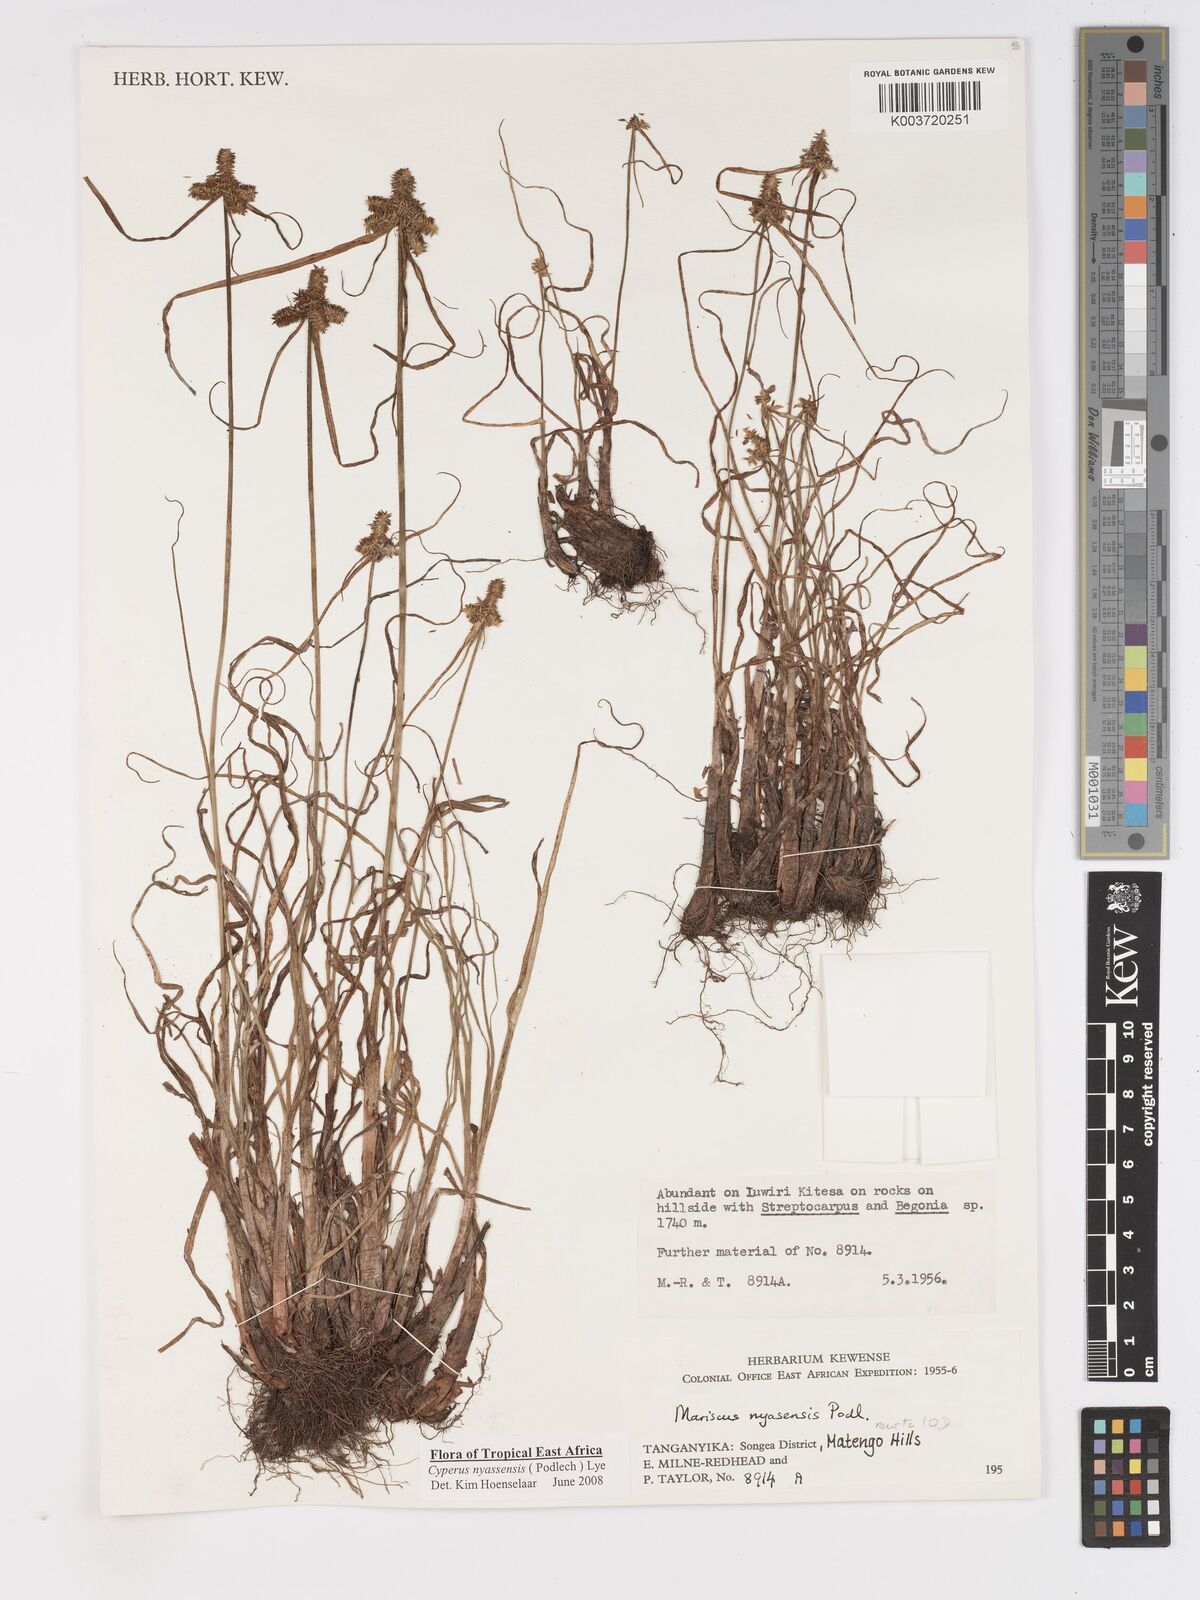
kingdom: Plantae
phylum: Tracheophyta
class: Liliopsida
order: Poales
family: Cyperaceae
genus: Cyperus
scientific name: Cyperus nyasensis
